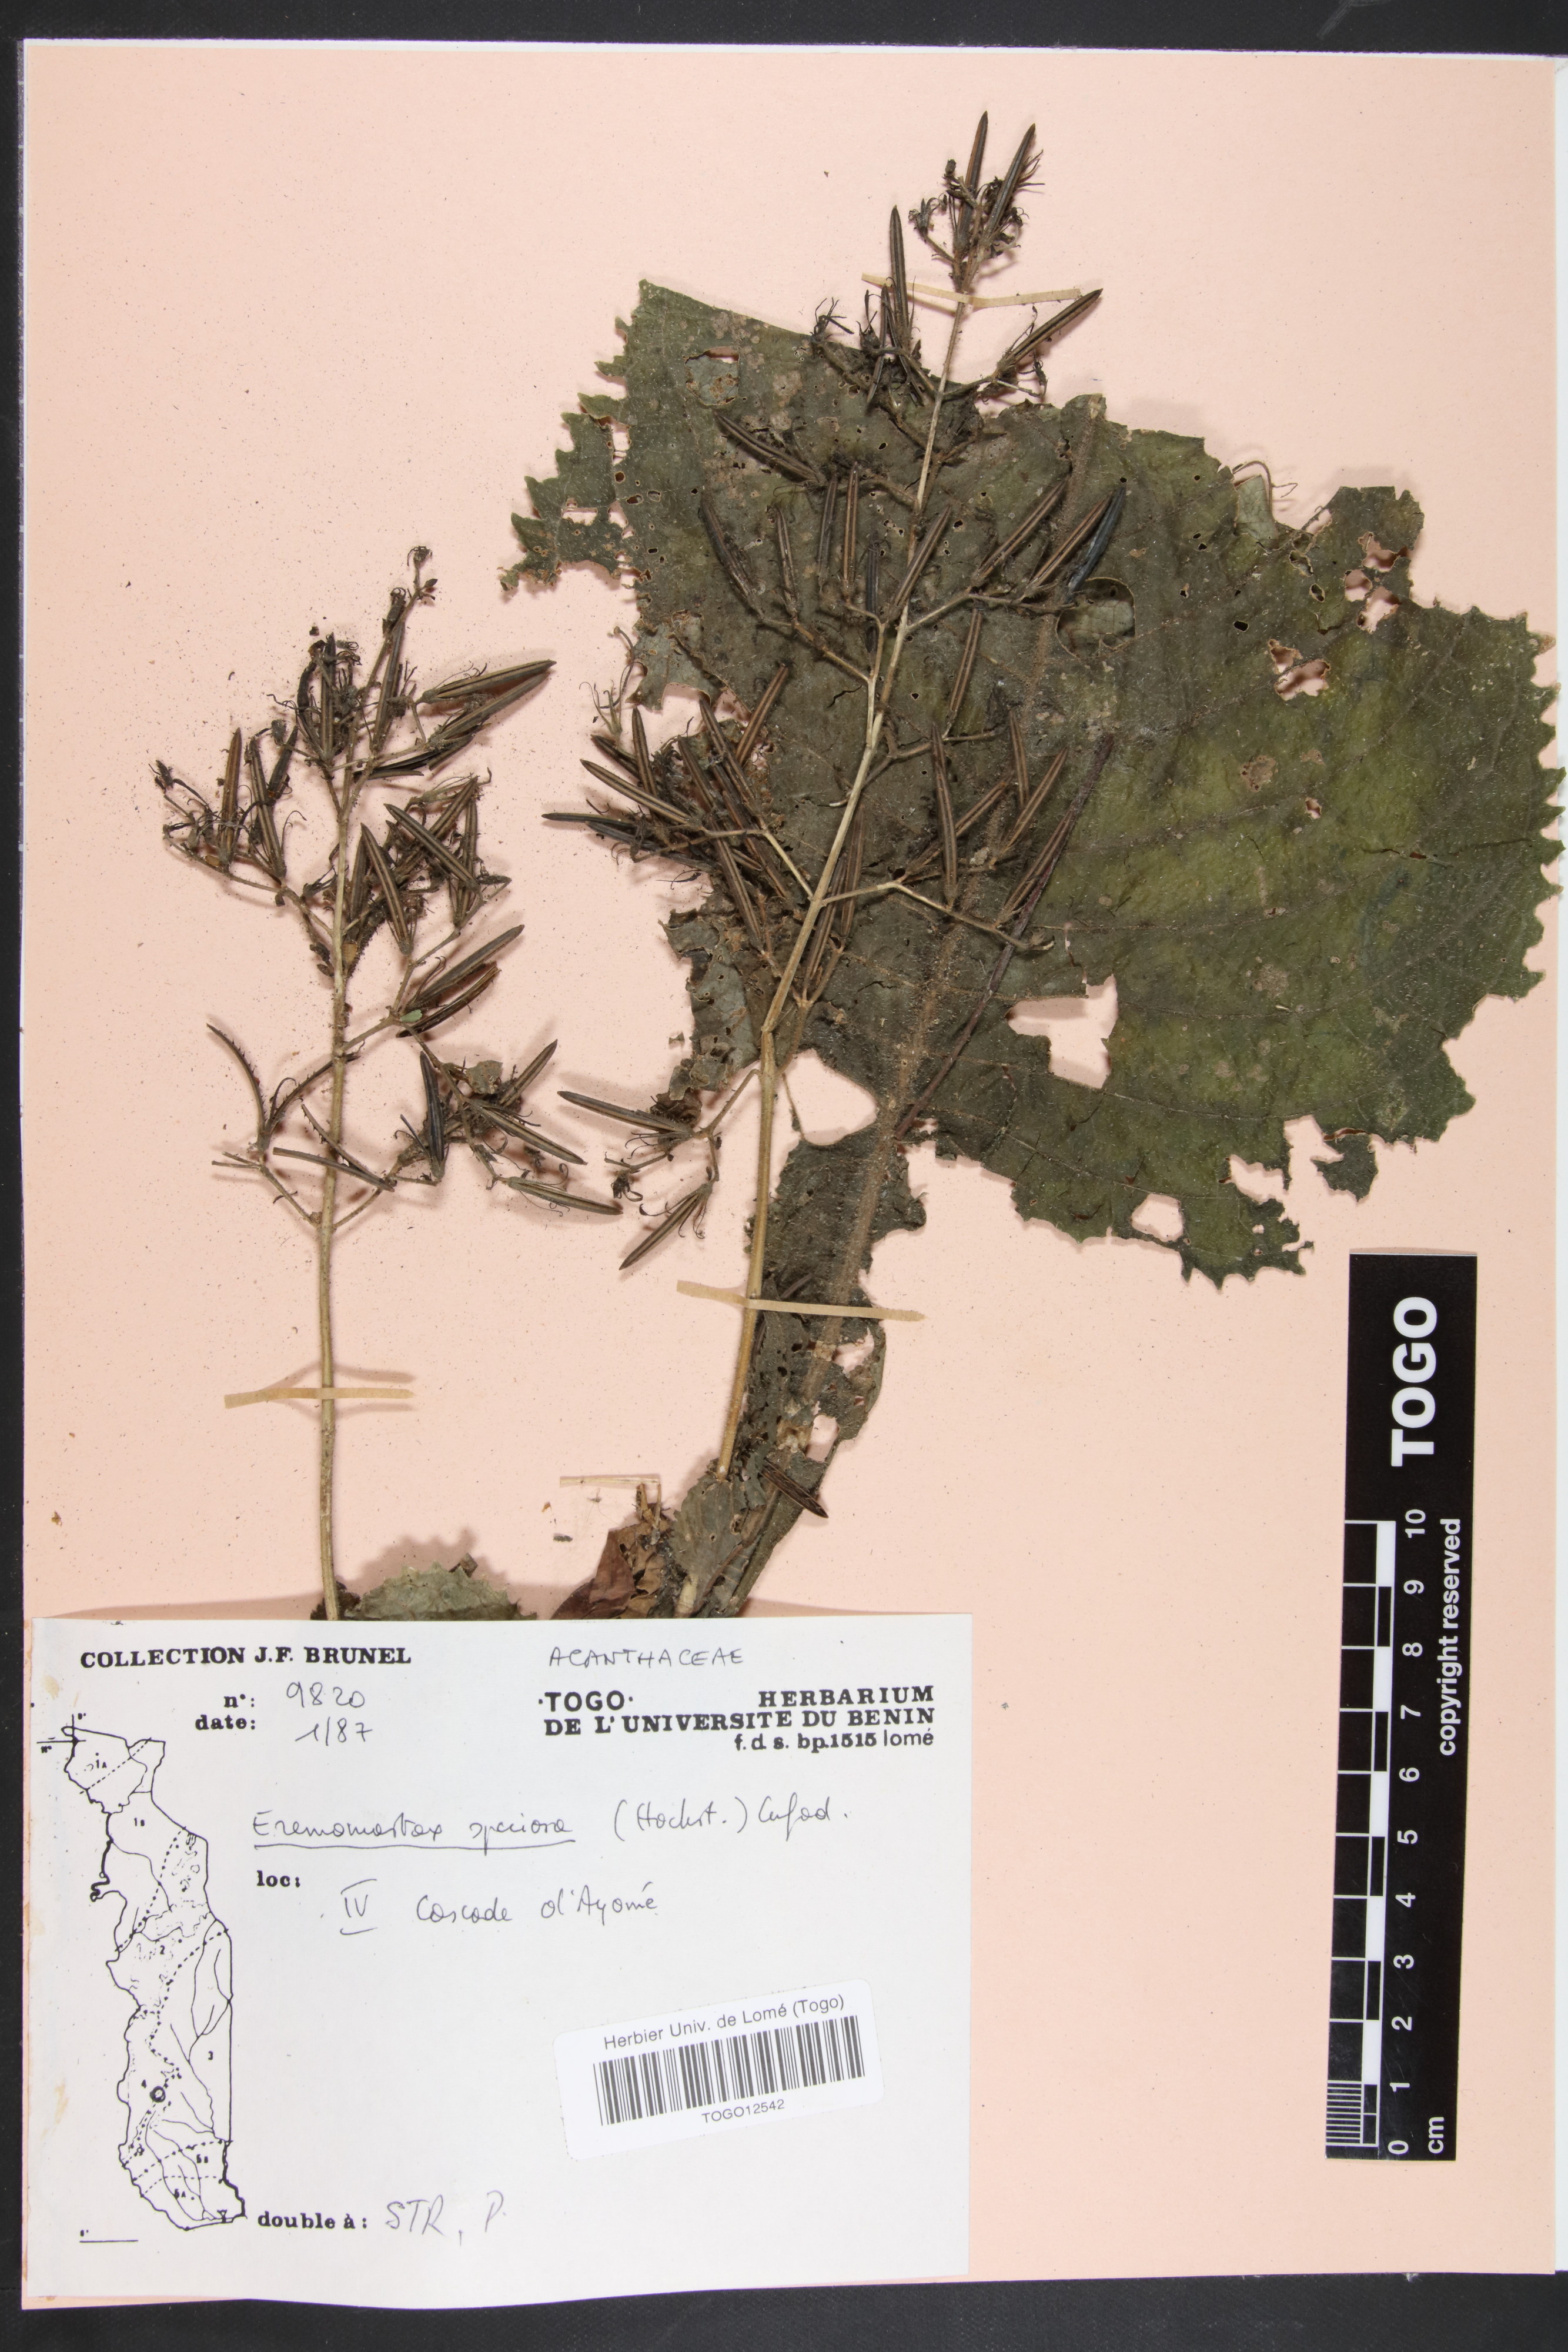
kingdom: Plantae
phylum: Tracheophyta
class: Magnoliopsida
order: Lamiales
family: Acanthaceae
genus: Eremomastax
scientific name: Eremomastax speciosa
